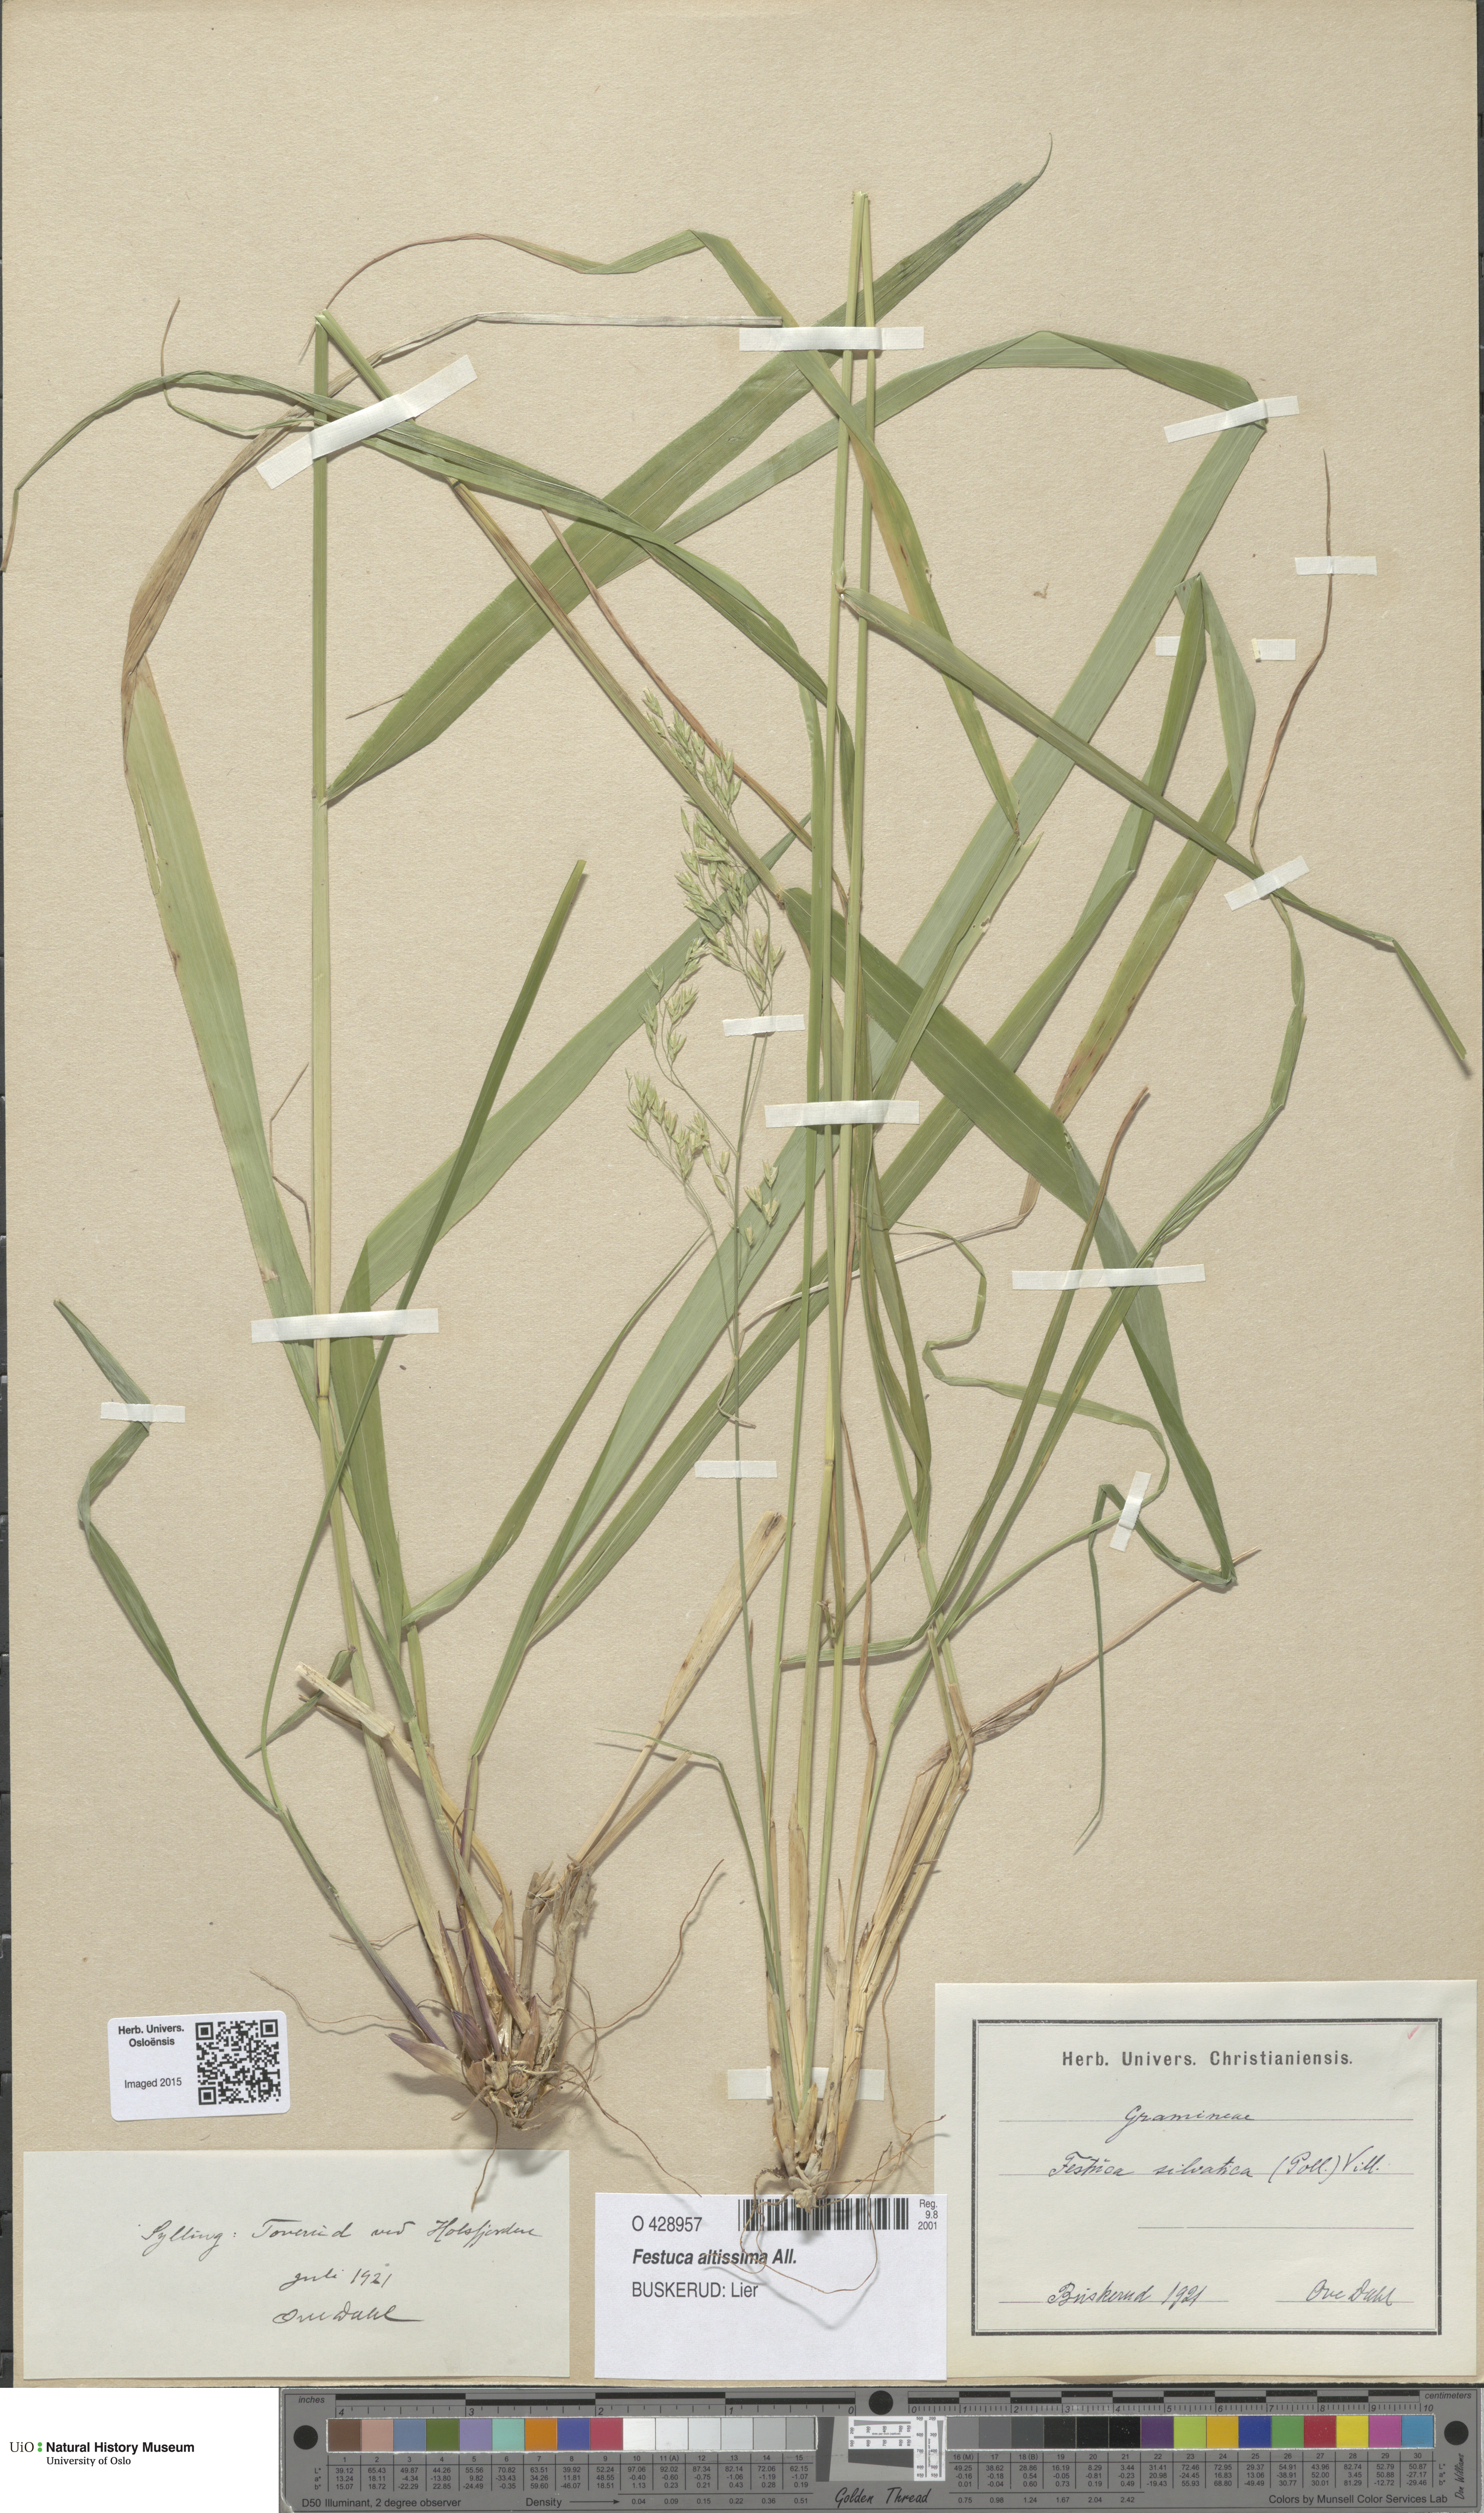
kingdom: Plantae
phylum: Tracheophyta
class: Liliopsida
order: Poales
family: Poaceae
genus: Festuca
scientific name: Festuca altissima
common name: Wood fescue
